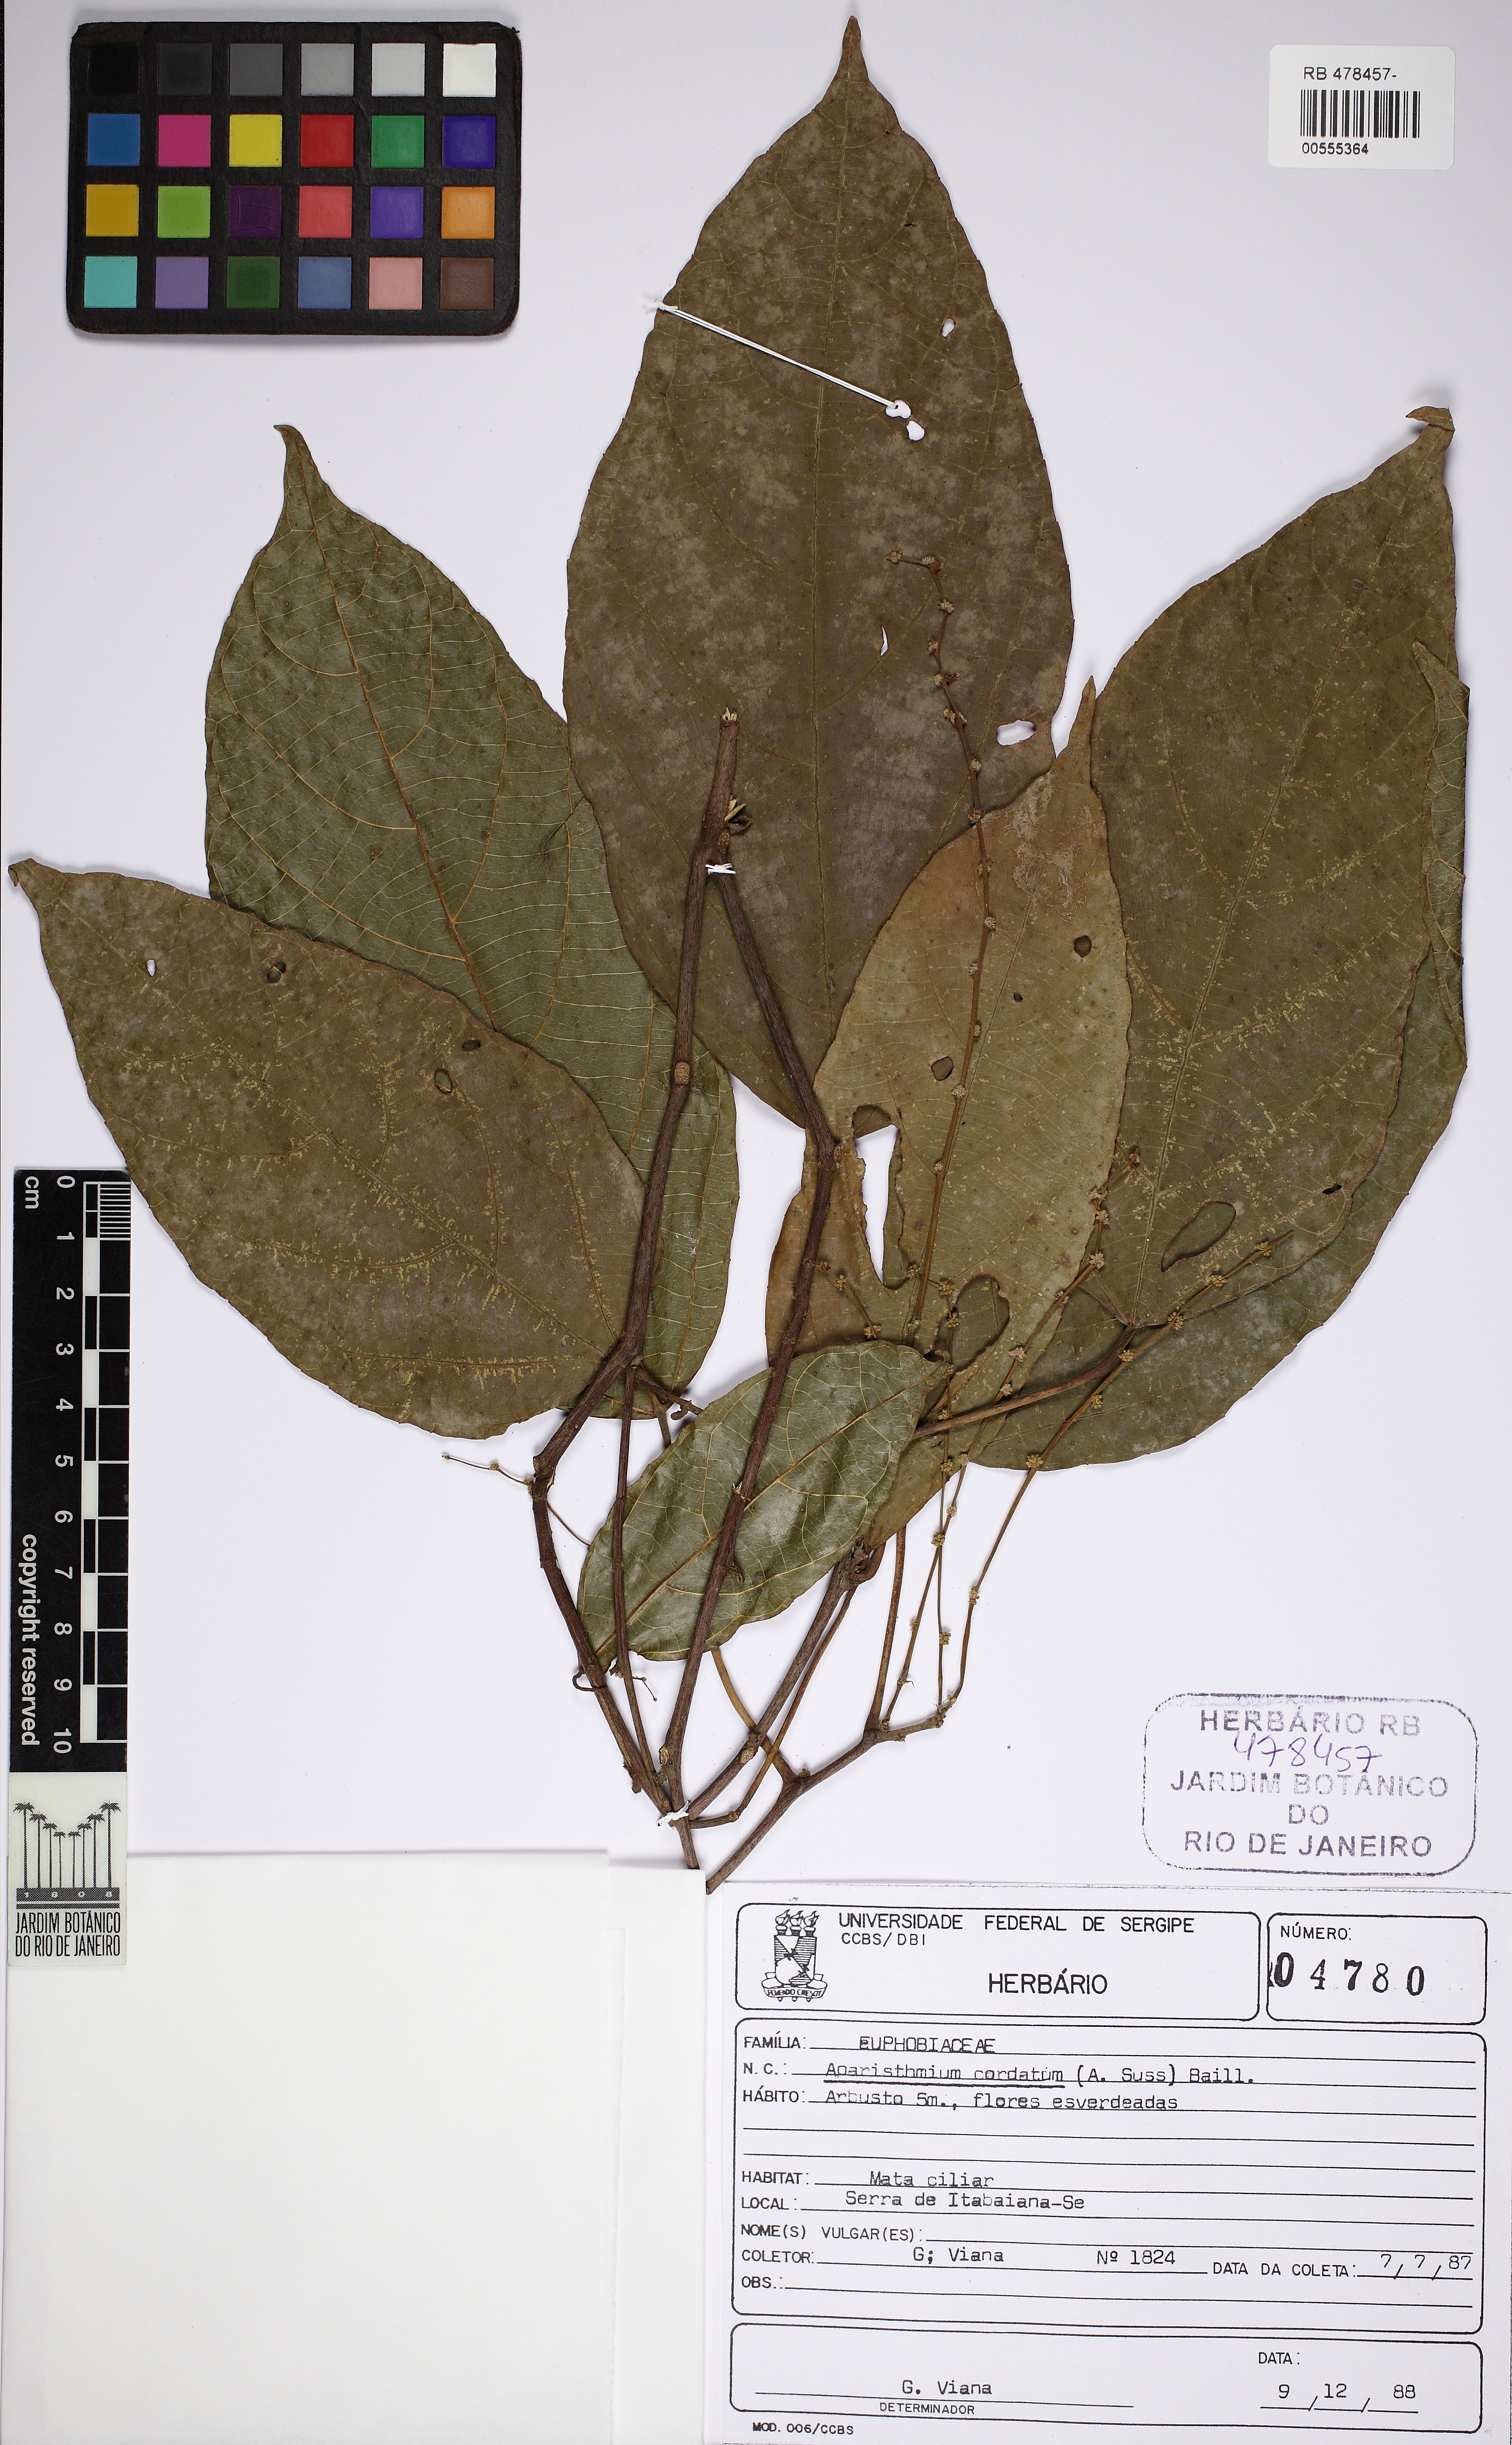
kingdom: Plantae
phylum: Tracheophyta
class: Magnoliopsida
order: Malpighiales
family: Euphorbiaceae
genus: Aparisthmium
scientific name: Aparisthmium cordatum
